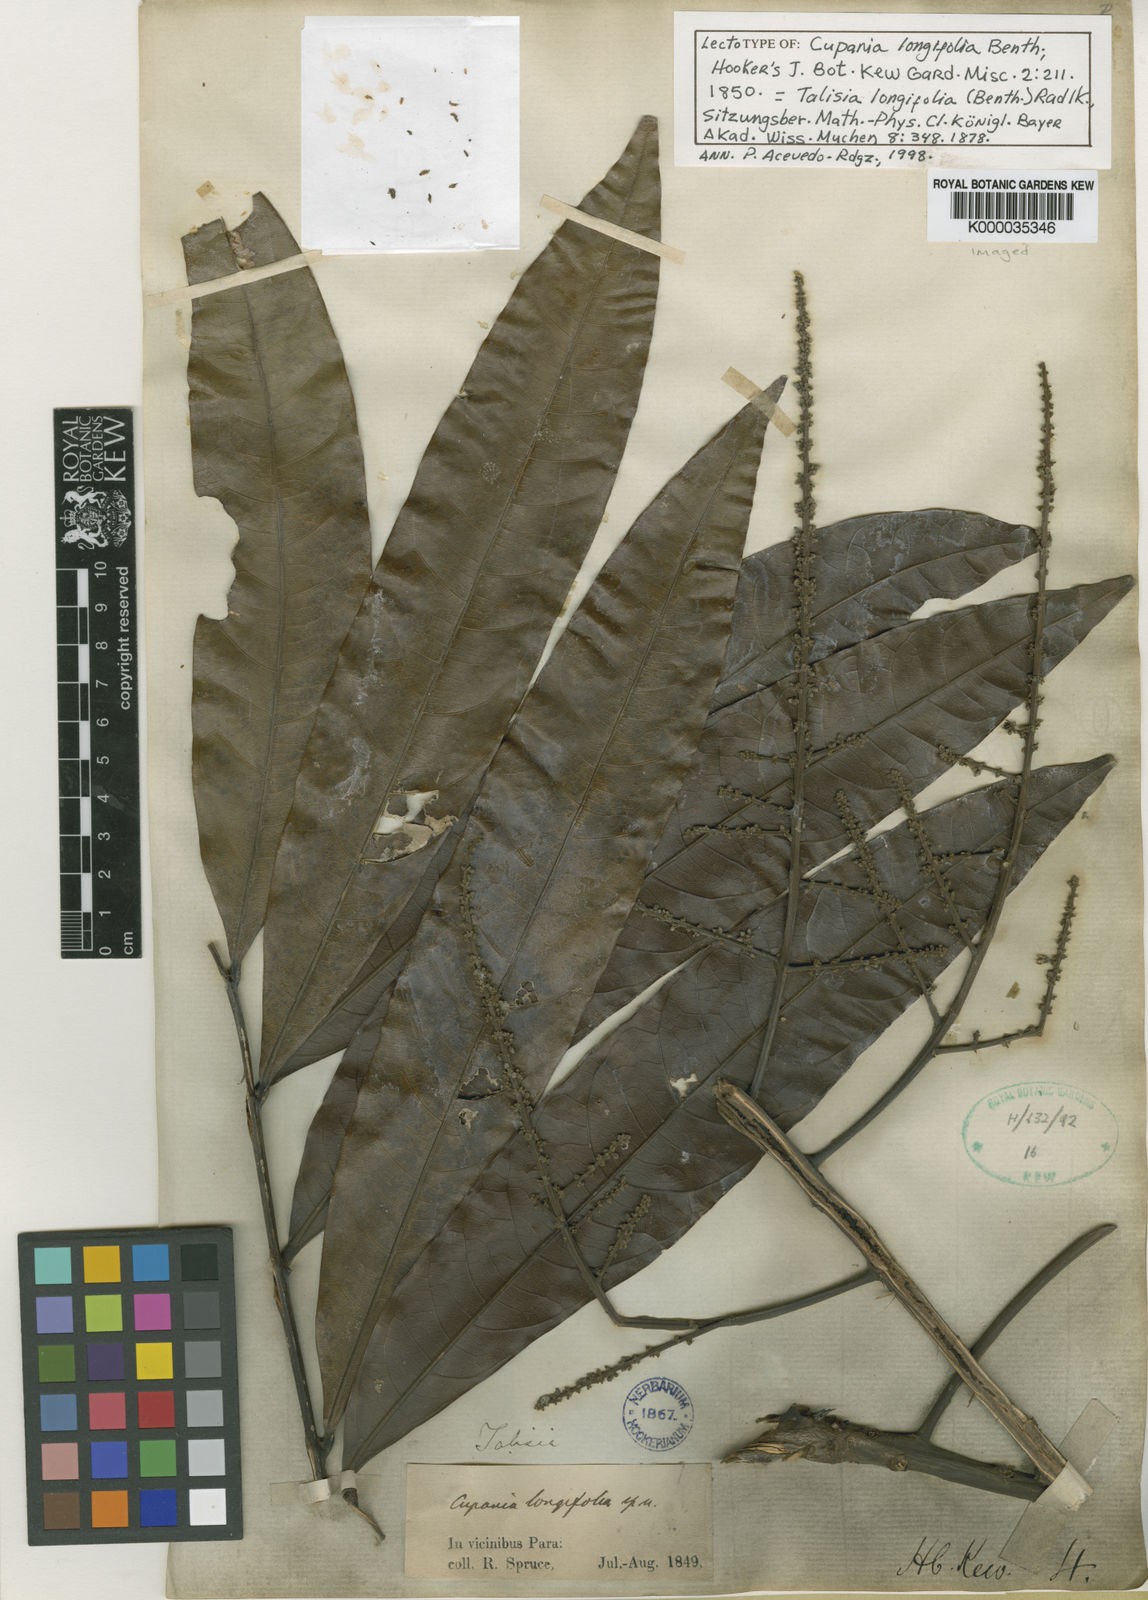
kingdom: Plantae
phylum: Tracheophyta
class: Magnoliopsida
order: Sapindales
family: Sapindaceae
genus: Talisia
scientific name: Talisia longifolia
